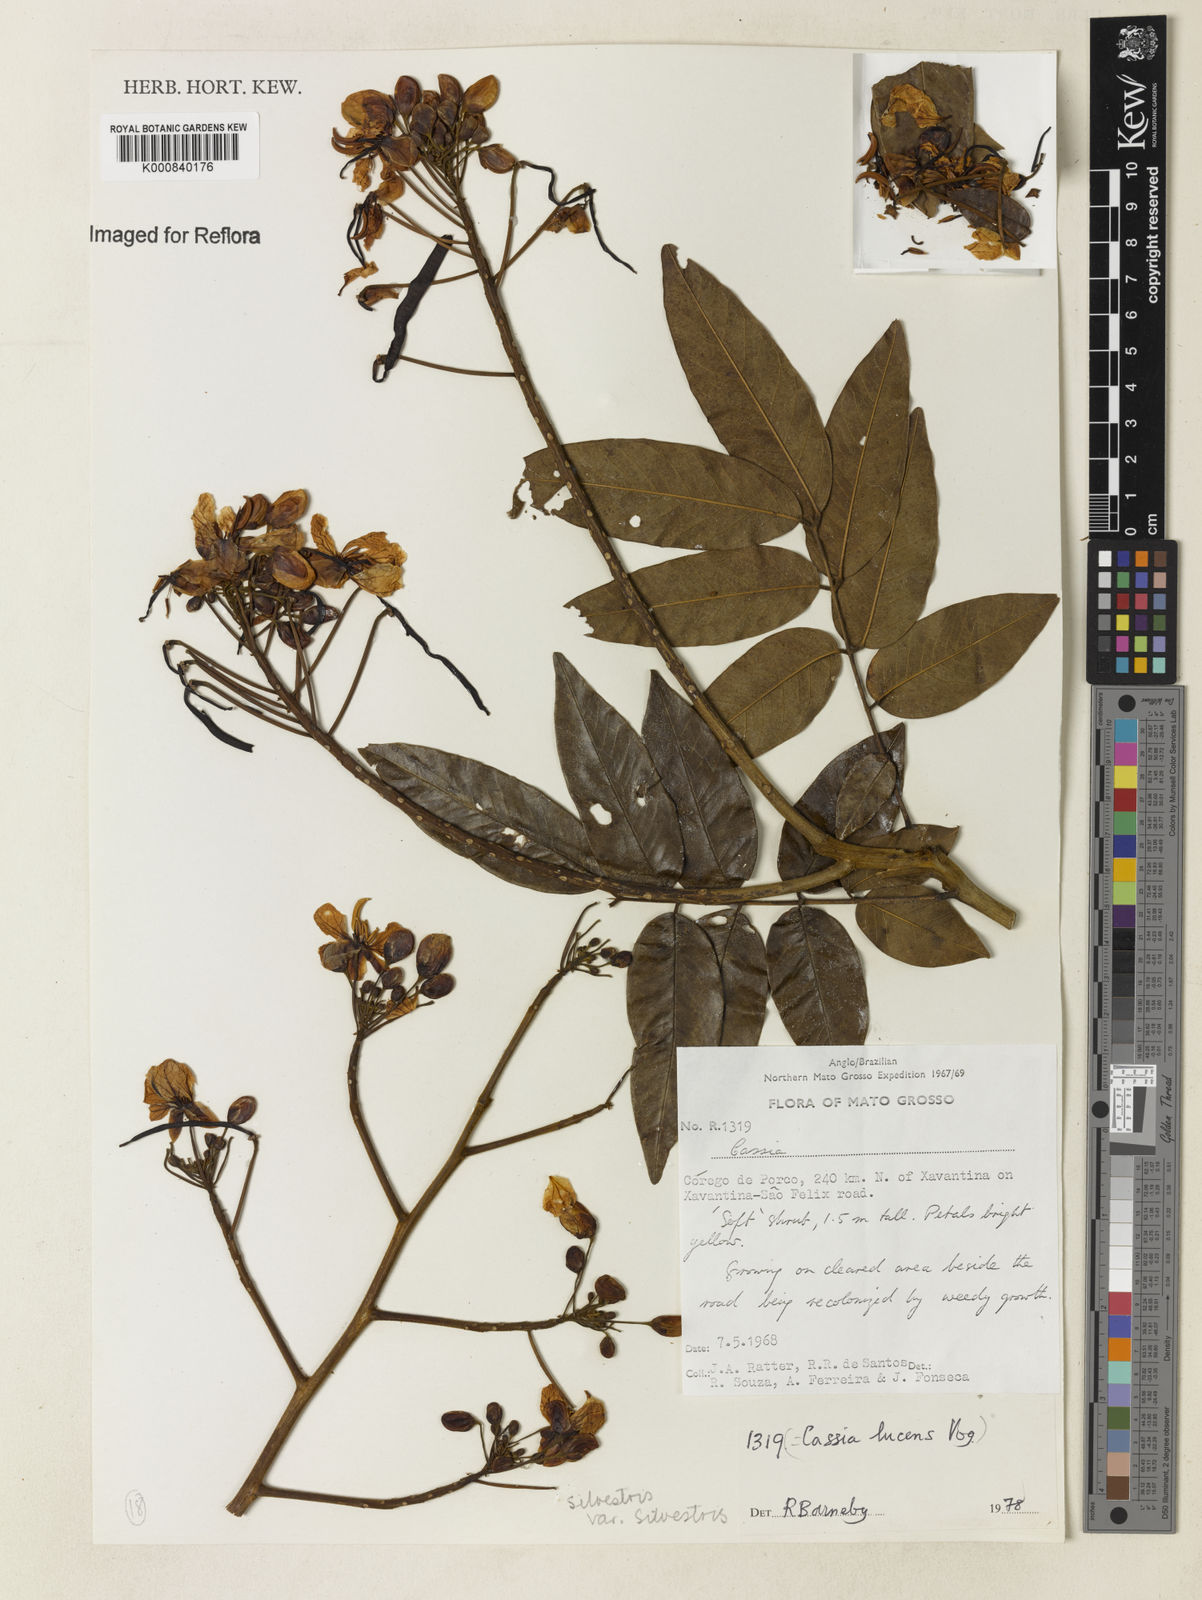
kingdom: Plantae
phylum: Tracheophyta
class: Magnoliopsida
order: Fabales
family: Fabaceae
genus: Senna
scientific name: Senna silvestris
